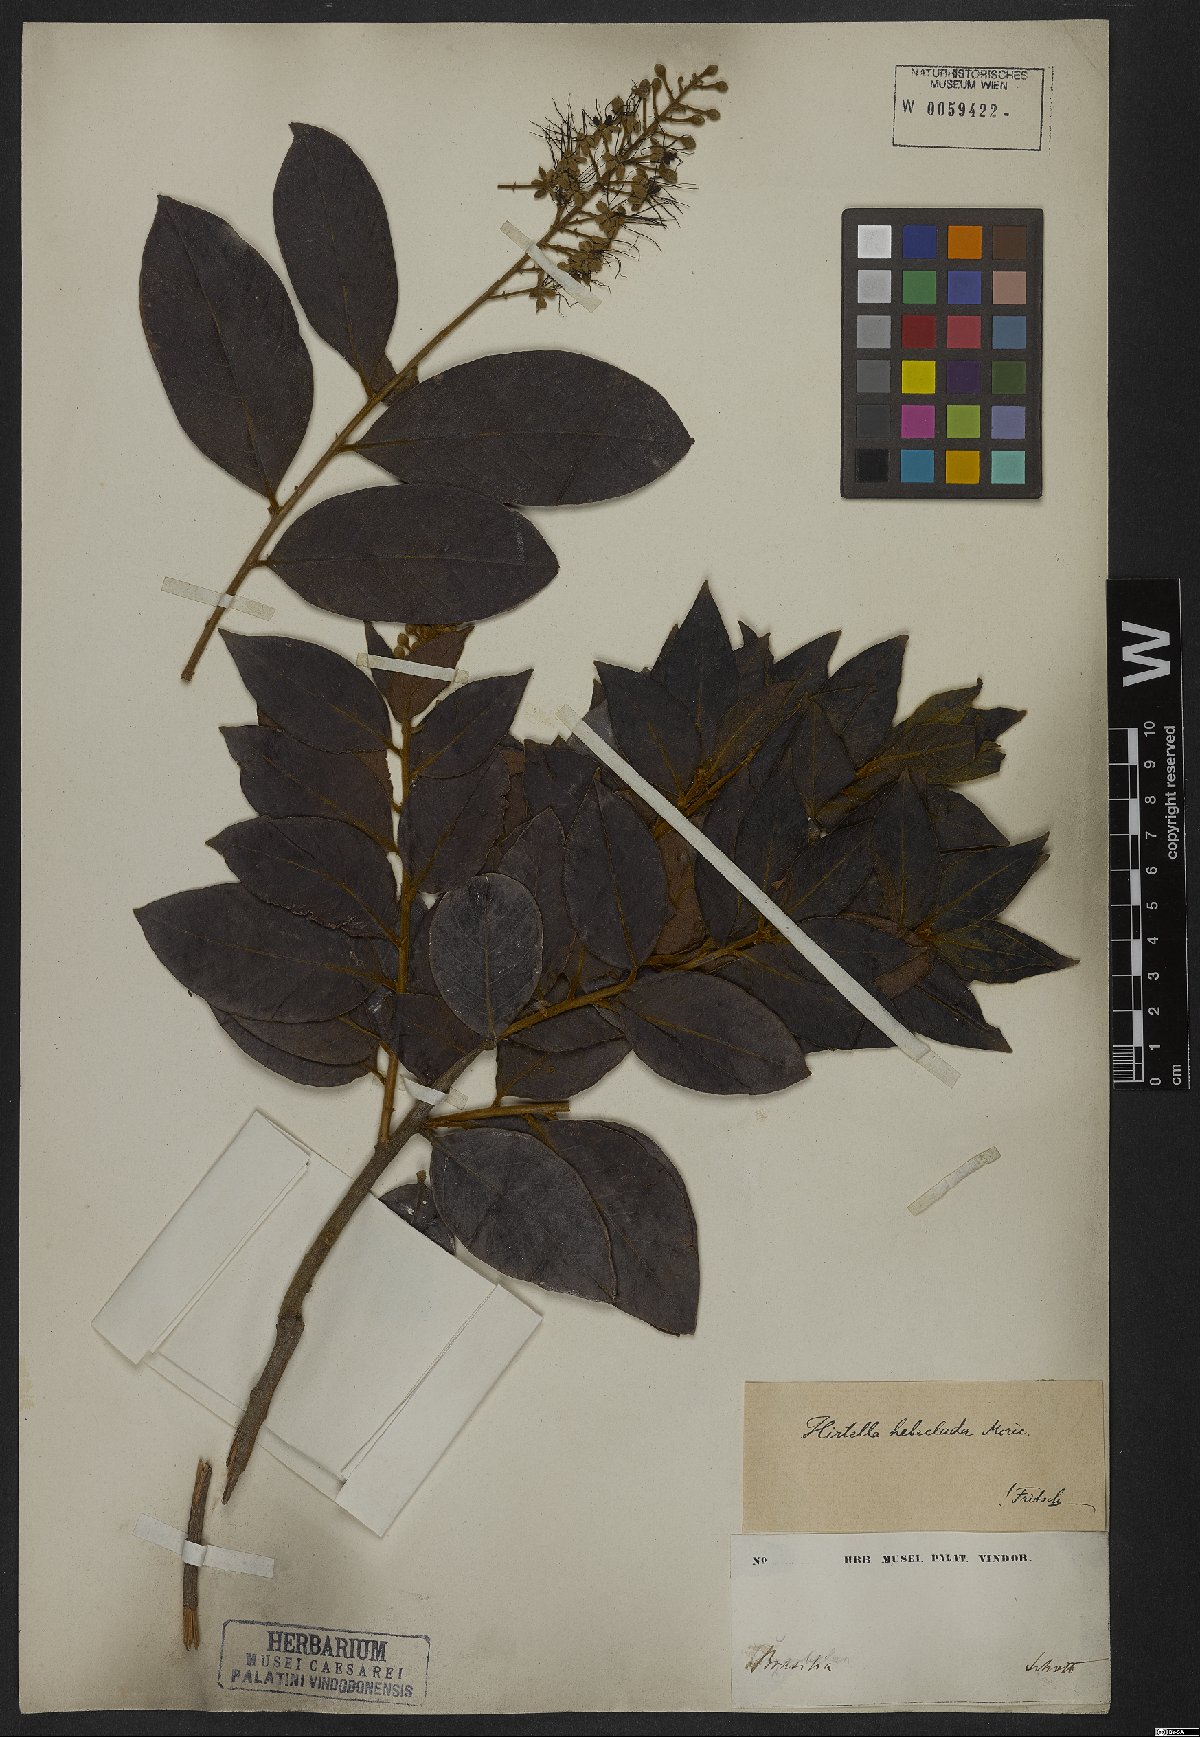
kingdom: Plantae
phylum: Tracheophyta
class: Magnoliopsida
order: Malpighiales
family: Chrysobalanaceae
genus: Hirtella
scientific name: Hirtella hebeclada
